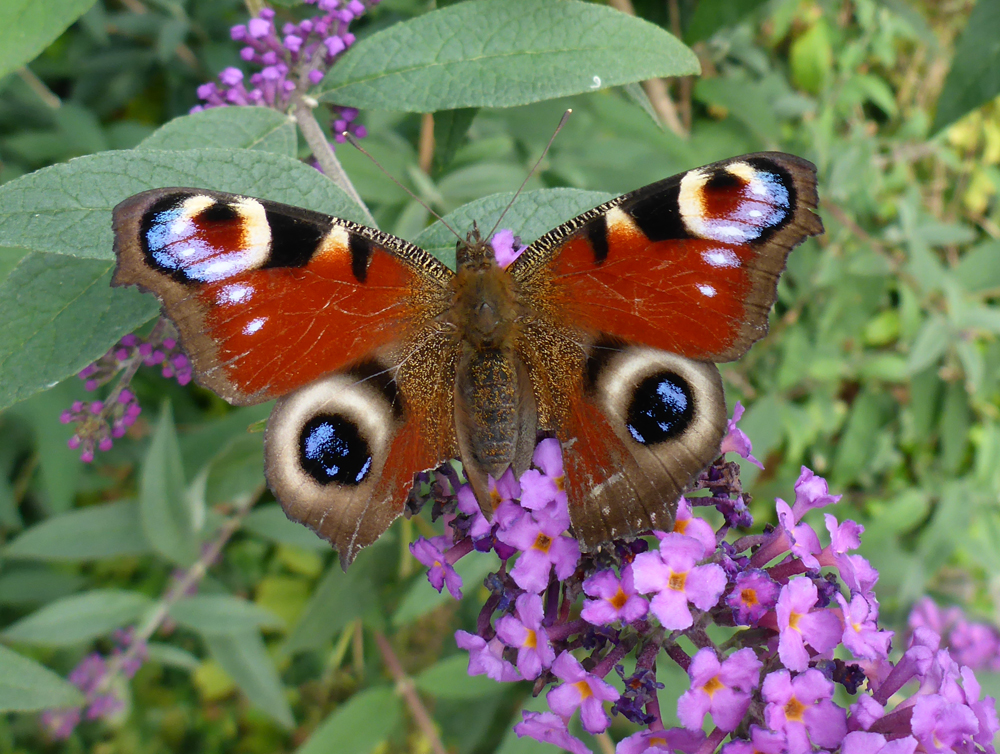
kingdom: Animalia
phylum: Arthropoda
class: Insecta
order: Lepidoptera
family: Nymphalidae
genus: Aglais
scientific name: Aglais io
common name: Peacock
